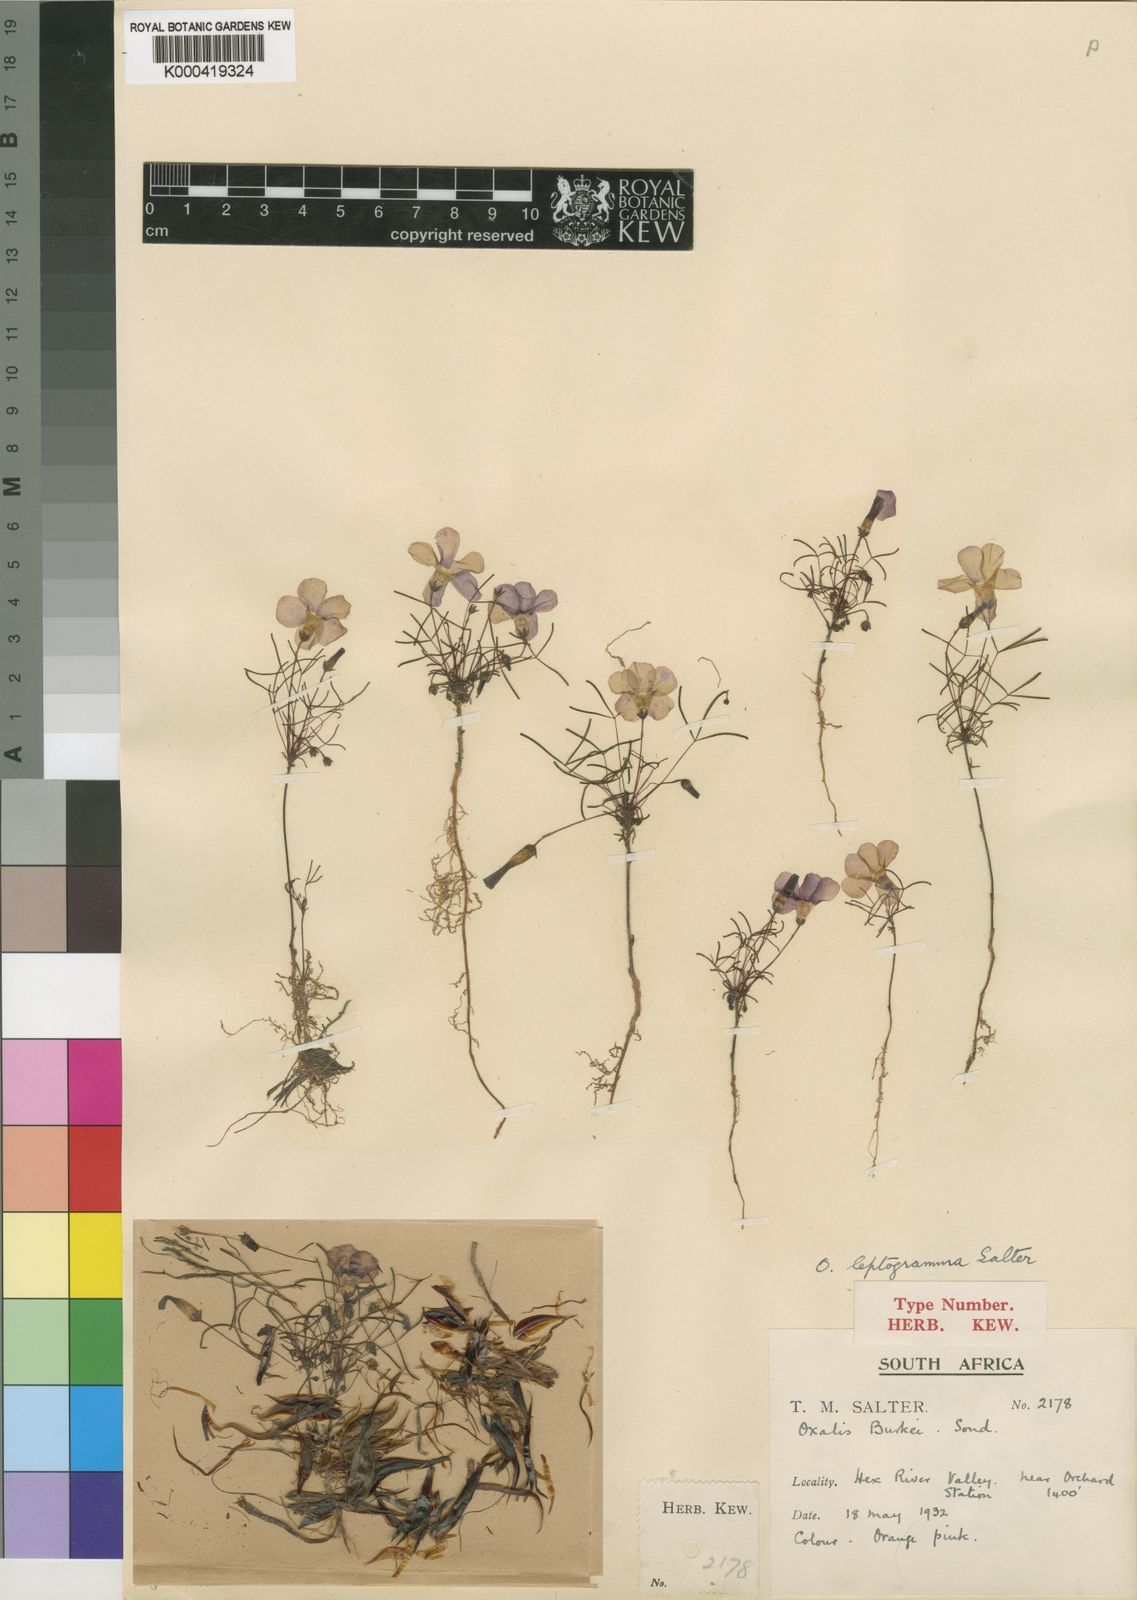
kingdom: Plantae
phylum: Tracheophyta
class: Magnoliopsida
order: Oxalidales
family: Oxalidaceae
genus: Oxalis
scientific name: Oxalis leptogramma
